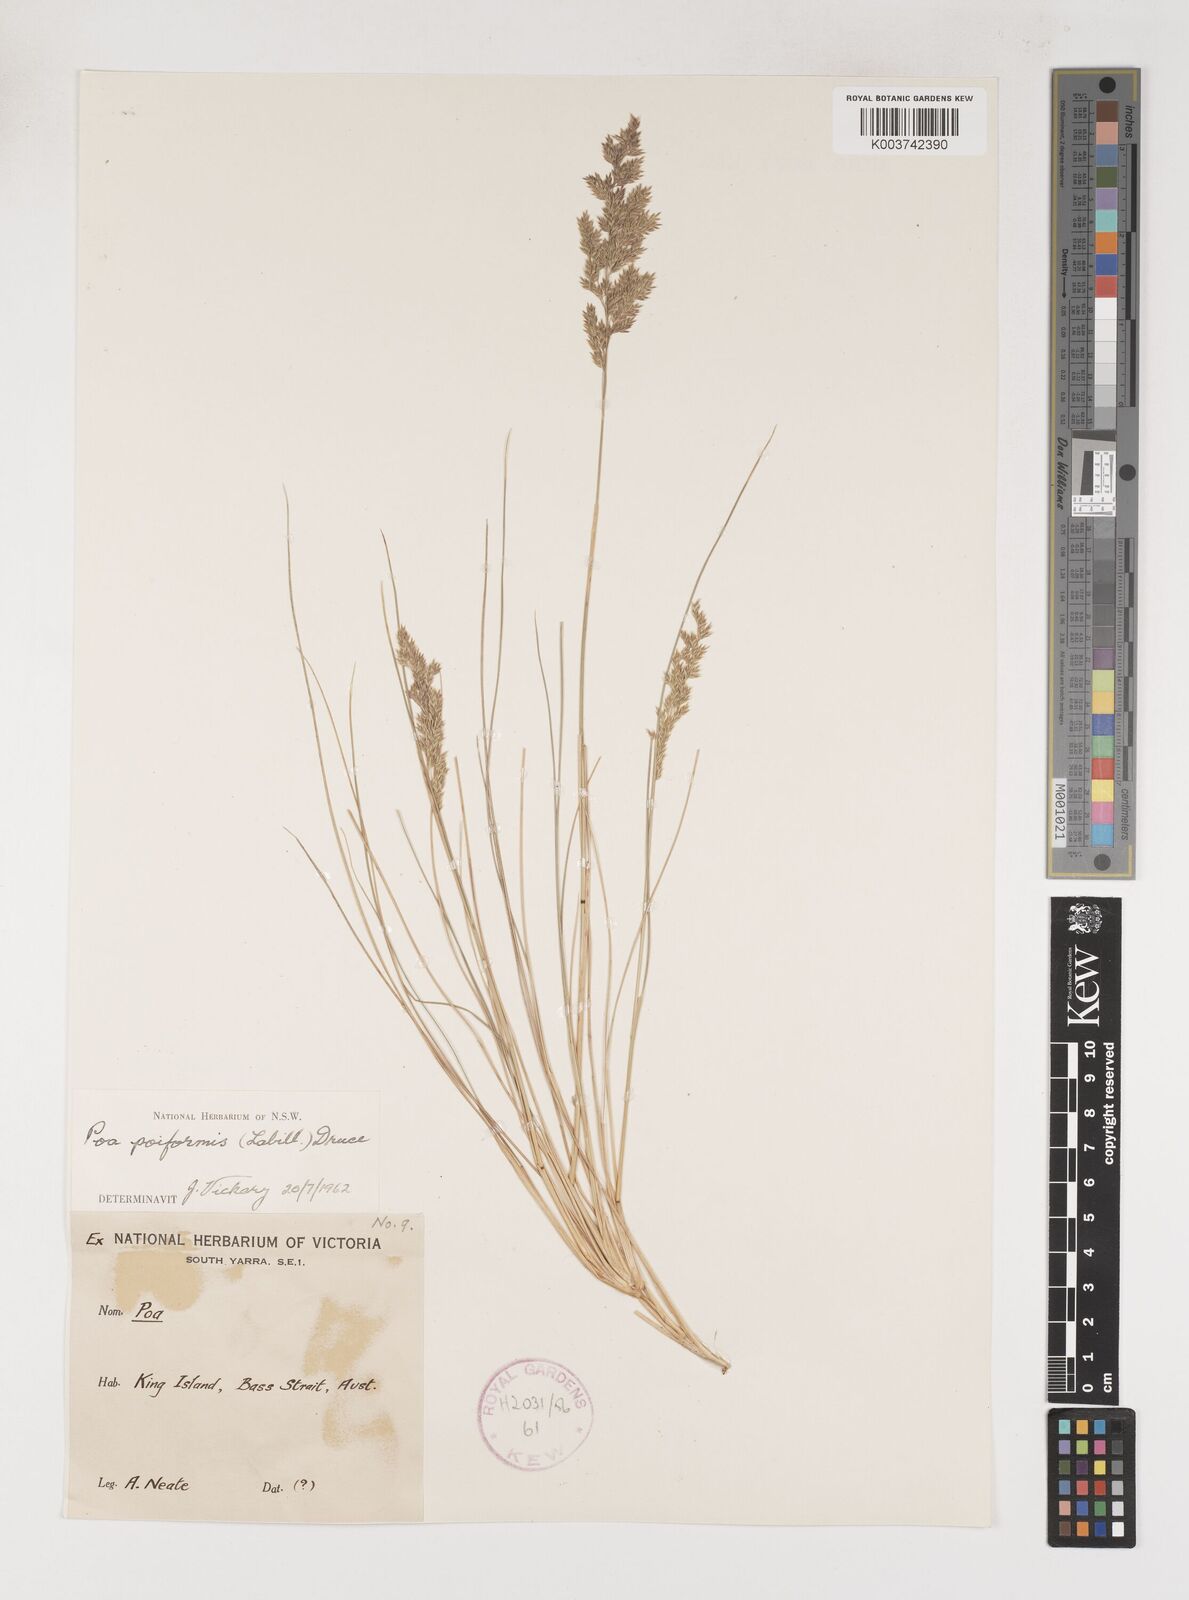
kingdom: Plantae
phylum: Tracheophyta
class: Liliopsida
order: Poales
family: Poaceae
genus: Poa
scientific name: Poa poiformis
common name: Tussock poa
